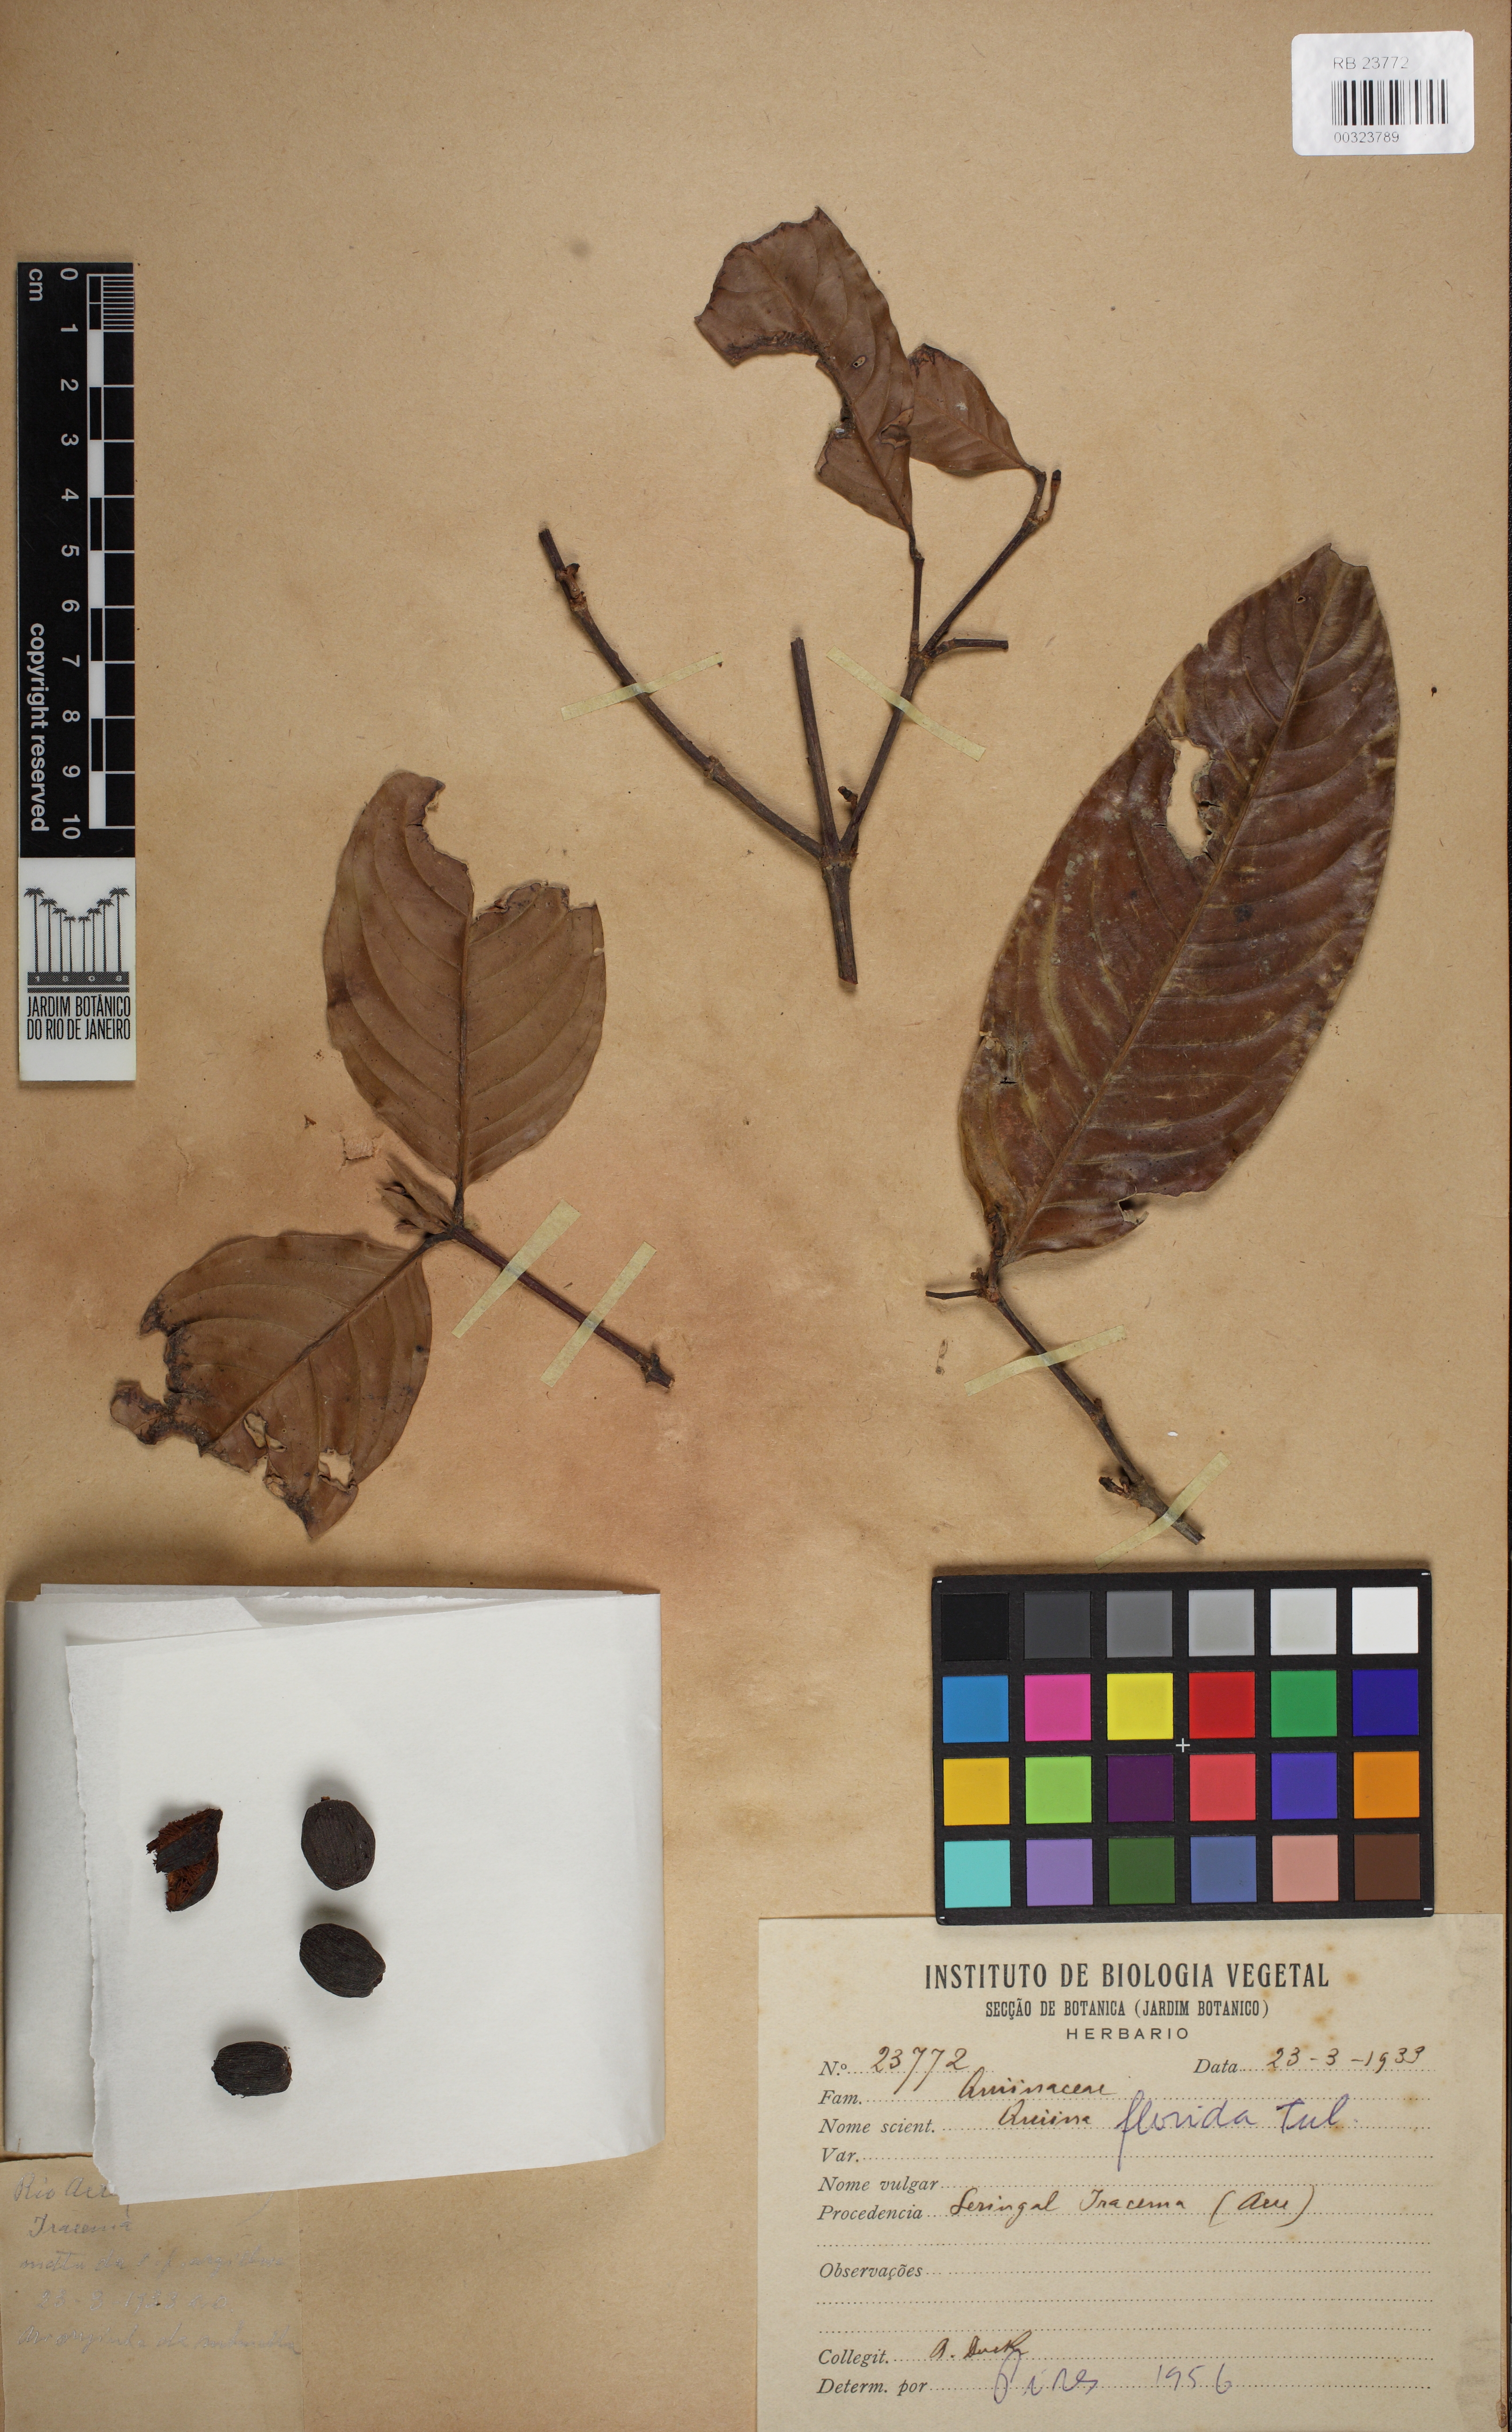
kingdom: Plantae
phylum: Tracheophyta
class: Magnoliopsida
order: Malpighiales
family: Quiinaceae
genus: Quiina
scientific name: Quiina florida
